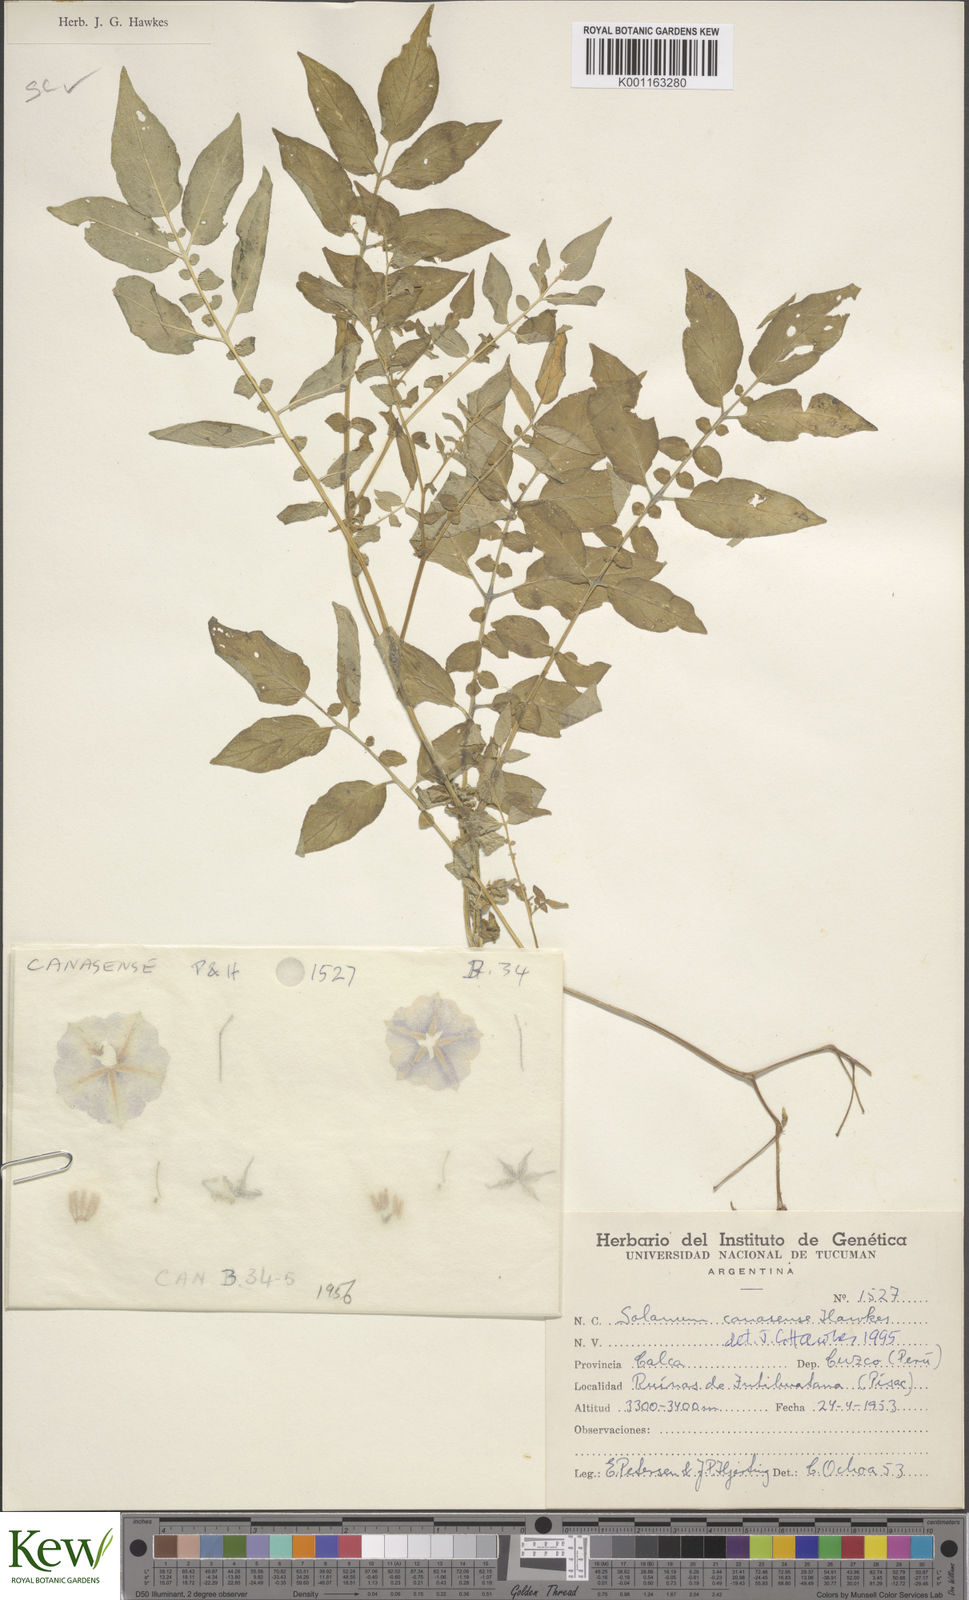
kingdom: Plantae
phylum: Tracheophyta
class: Magnoliopsida
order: Solanales
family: Solanaceae
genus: Solanum
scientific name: Solanum candolleanum
